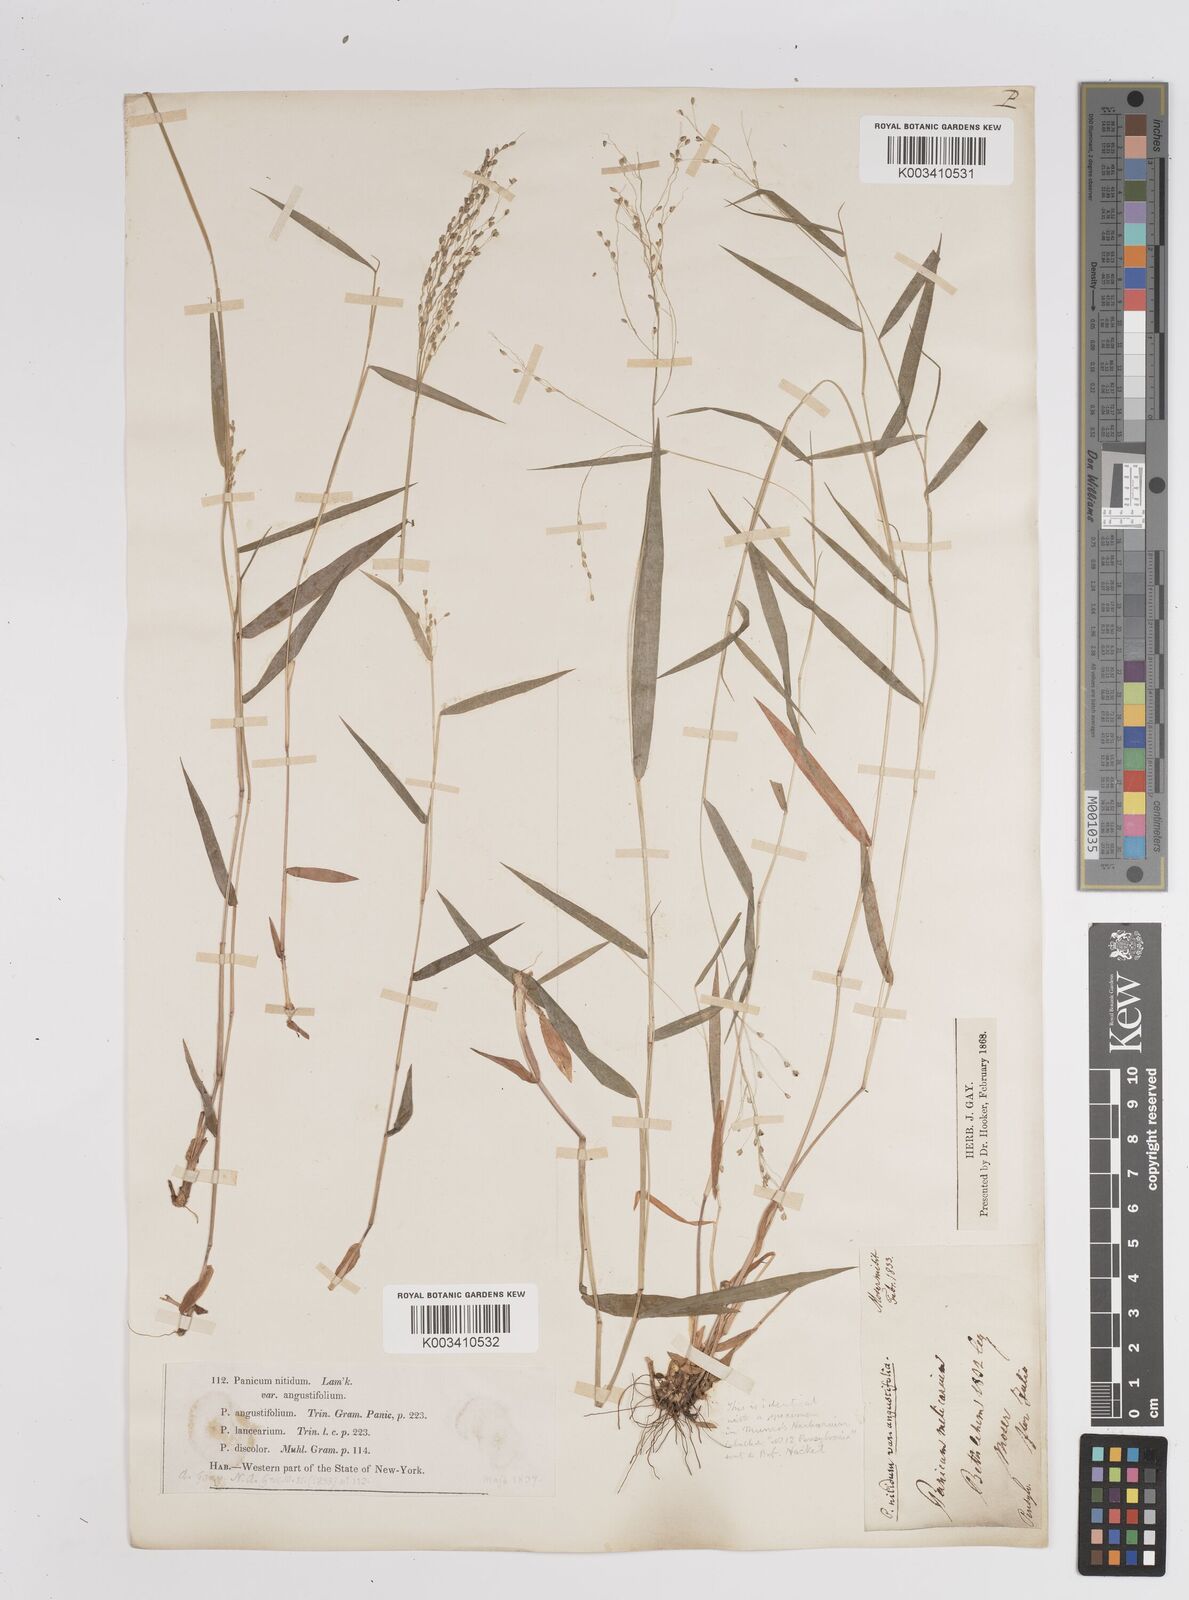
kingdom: Plantae
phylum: Tracheophyta
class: Liliopsida
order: Poales
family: Poaceae
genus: Dichanthelium
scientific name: Dichanthelium polyanthes
